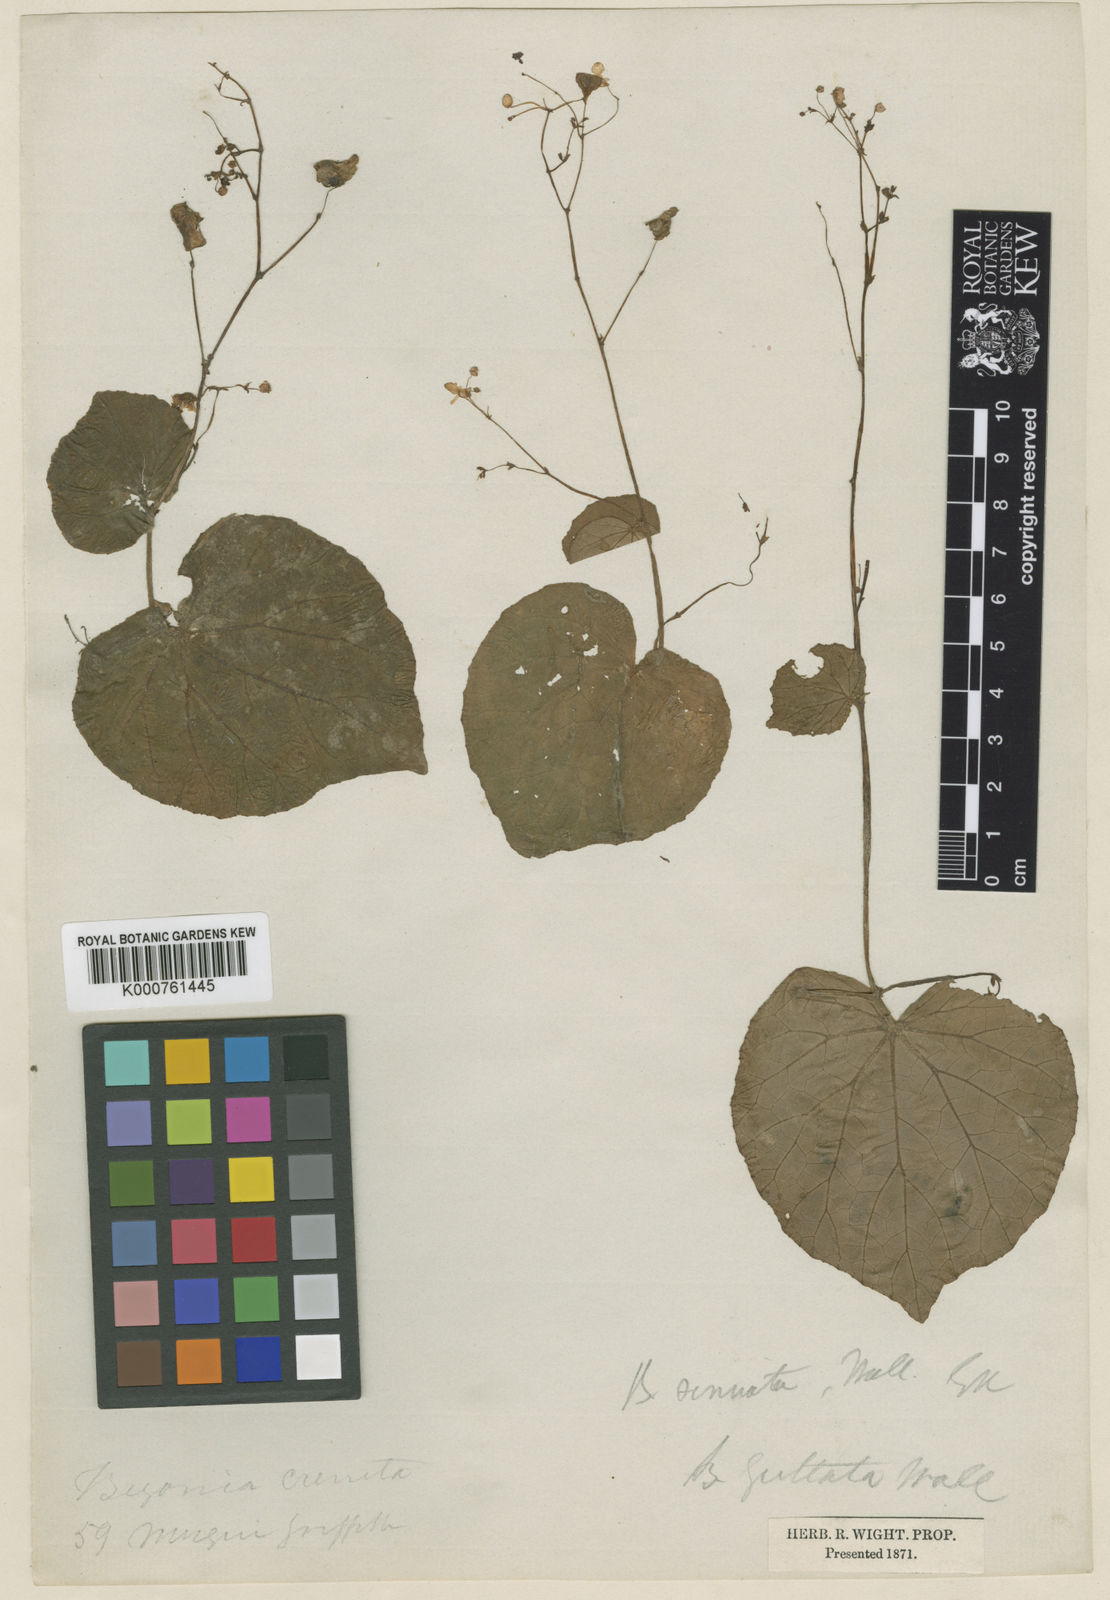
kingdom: Plantae
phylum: Tracheophyta
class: Magnoliopsida
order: Cucurbitales
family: Begoniaceae
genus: Begonia
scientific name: Begonia
